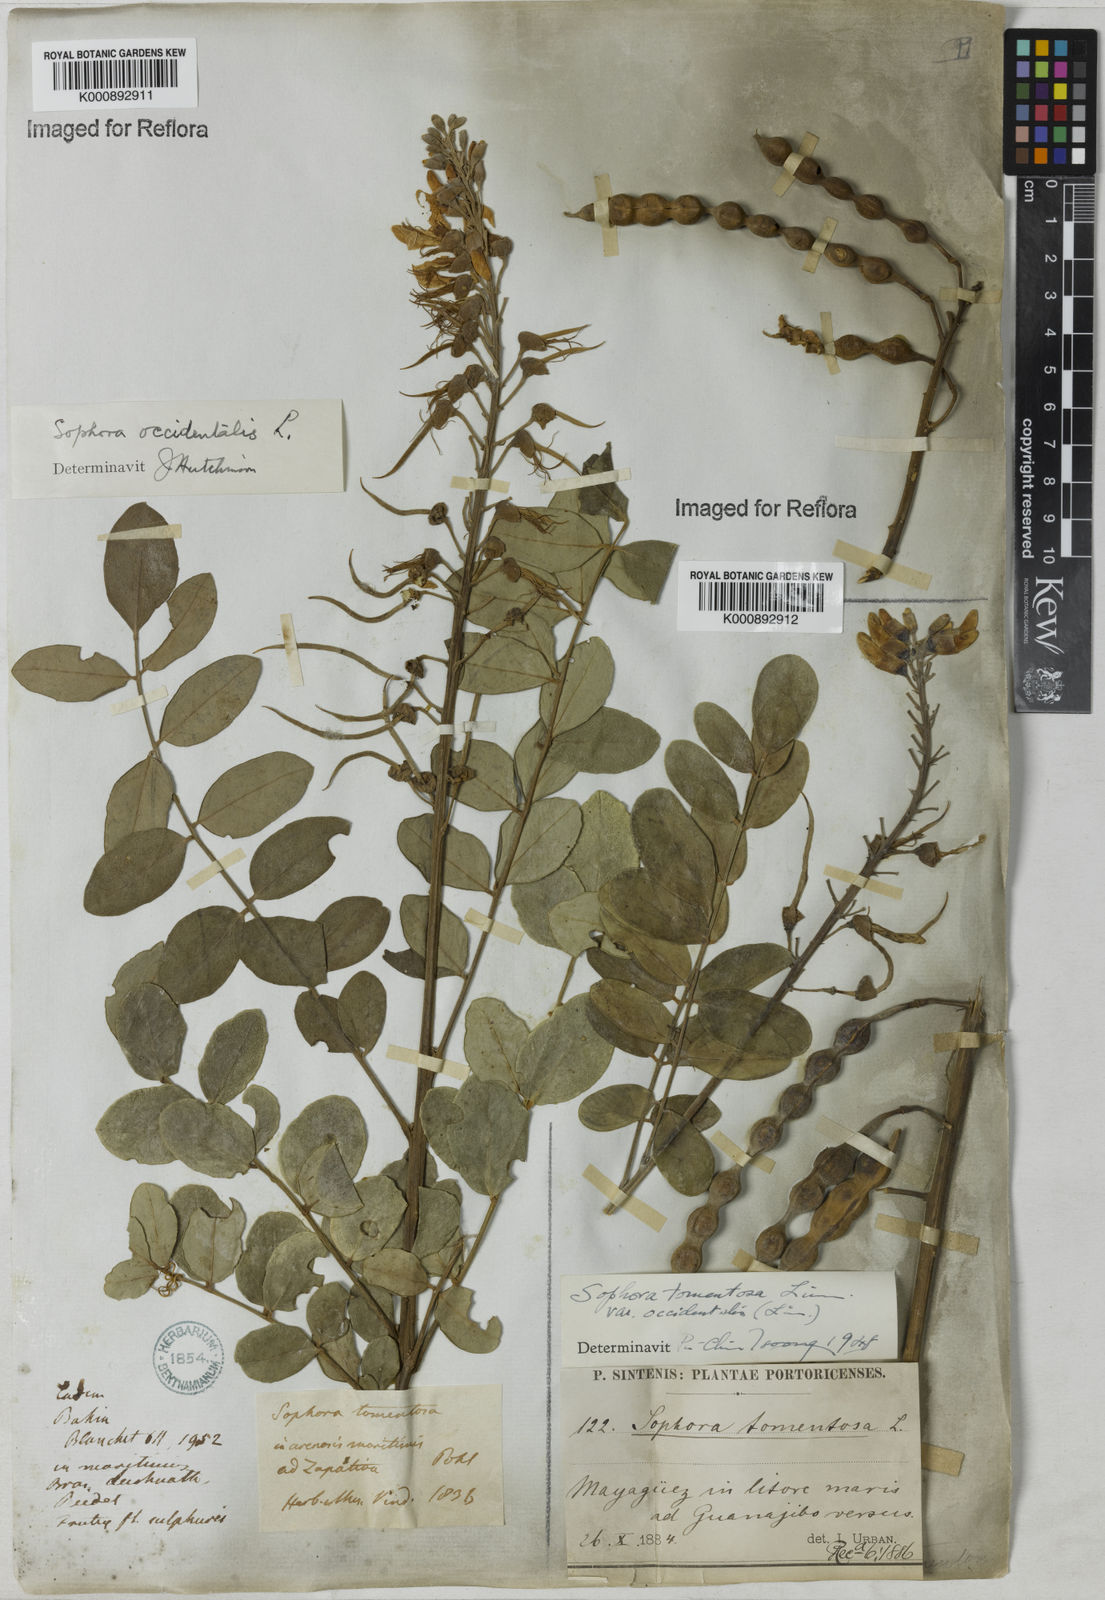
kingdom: Plantae
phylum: Tracheophyta
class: Magnoliopsida
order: Fabales
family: Fabaceae
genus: Sophora
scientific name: Sophora
